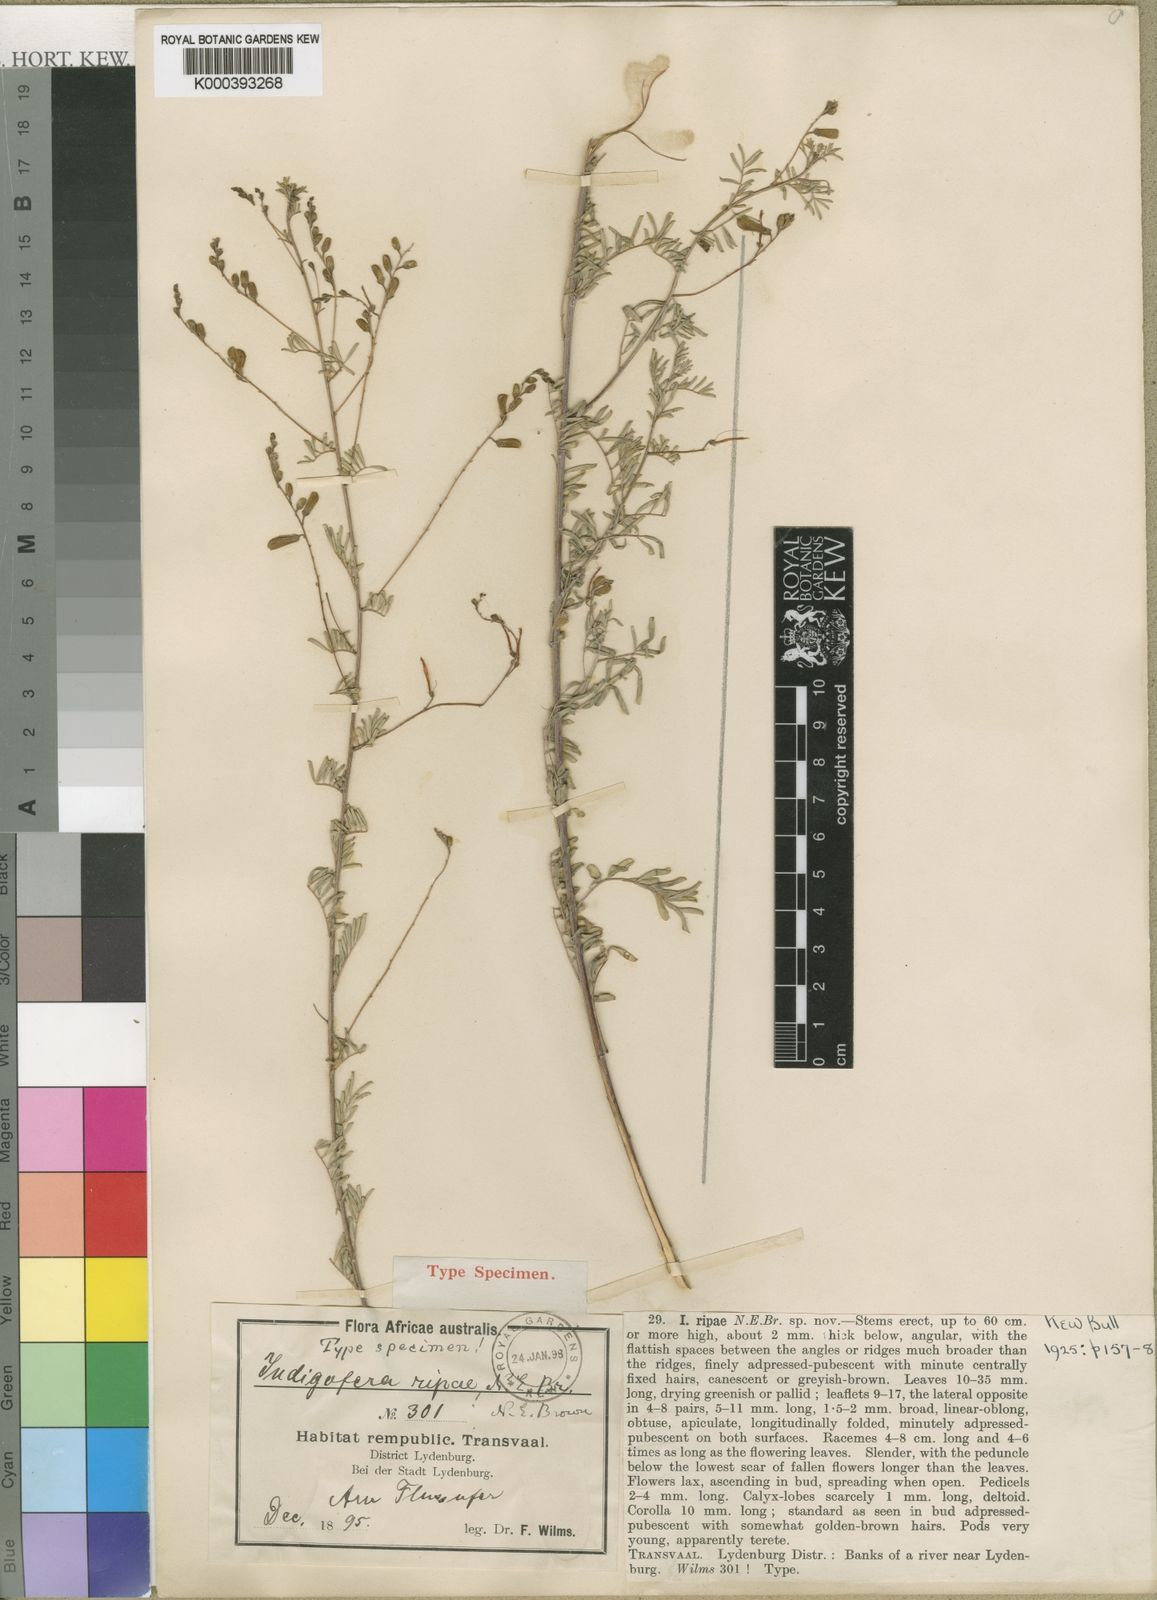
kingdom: Plantae
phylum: Tracheophyta
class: Magnoliopsida
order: Fabales
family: Fabaceae
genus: Indigofera
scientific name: Indigofera ripae
